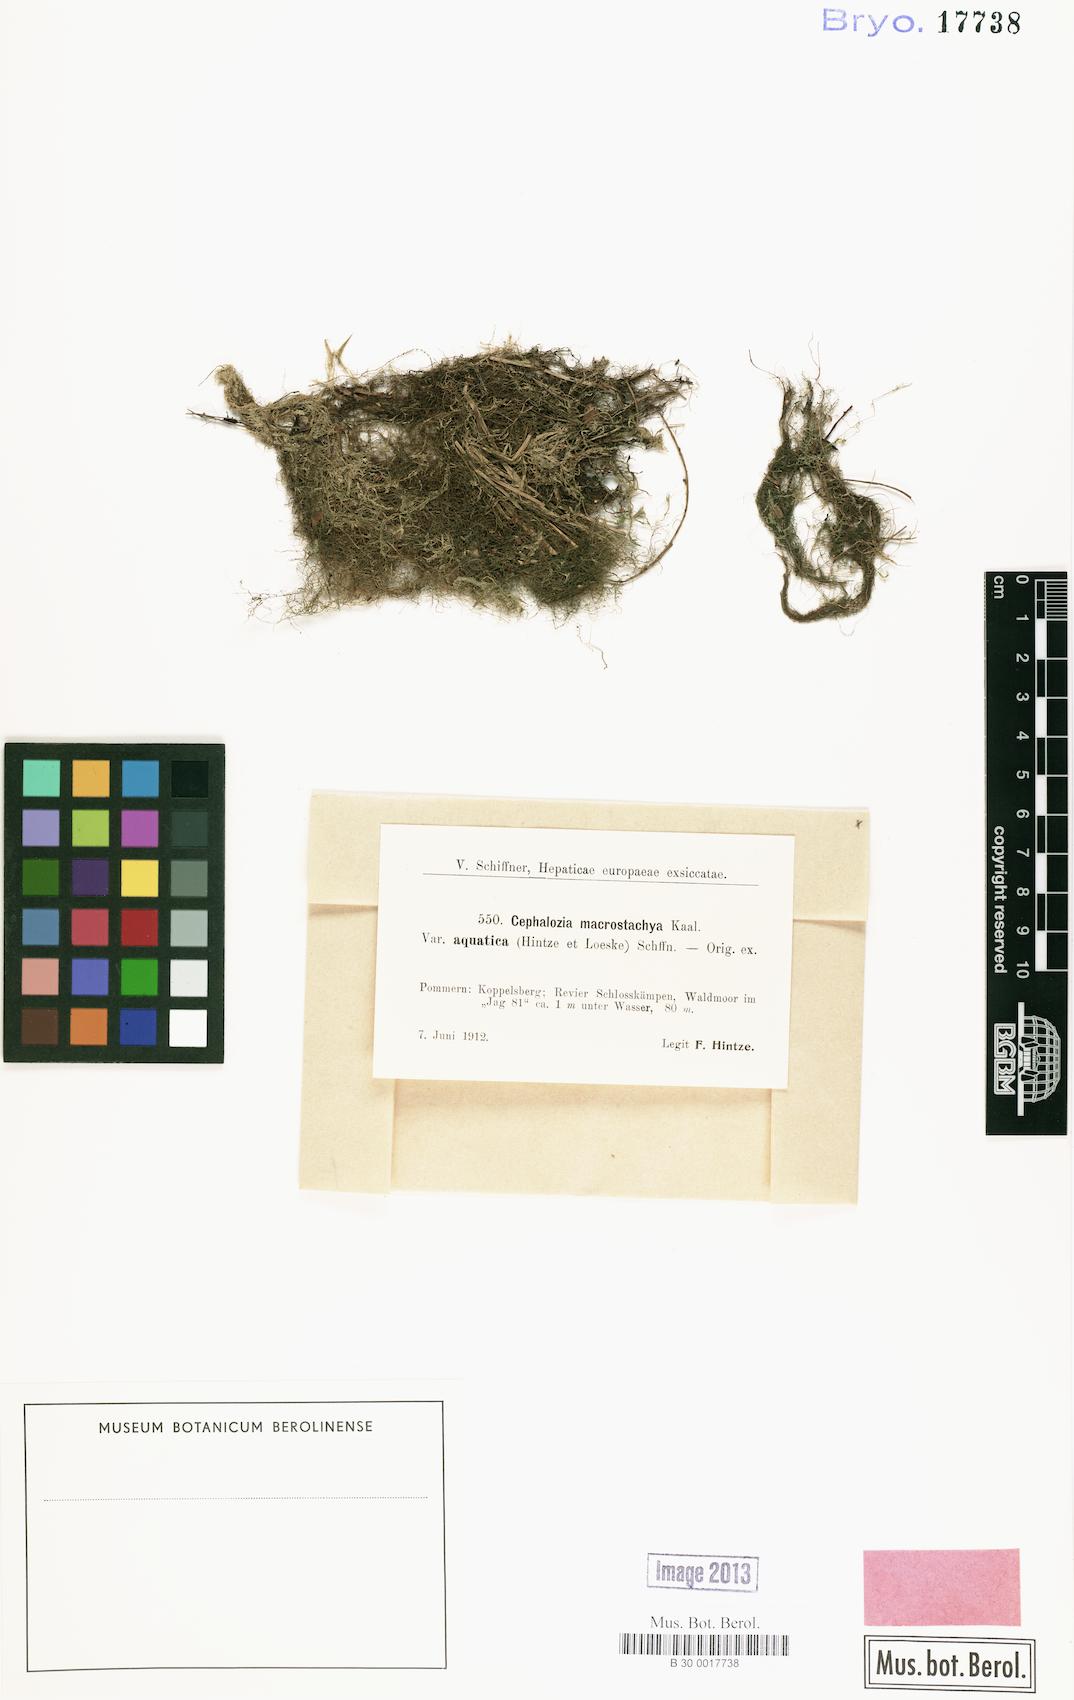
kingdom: Plantae
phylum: Marchantiophyta
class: Jungermanniopsida
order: Jungermanniales
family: Cephaloziaceae
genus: Fuscocephaloziopsis
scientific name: Fuscocephaloziopsis macrostachya
